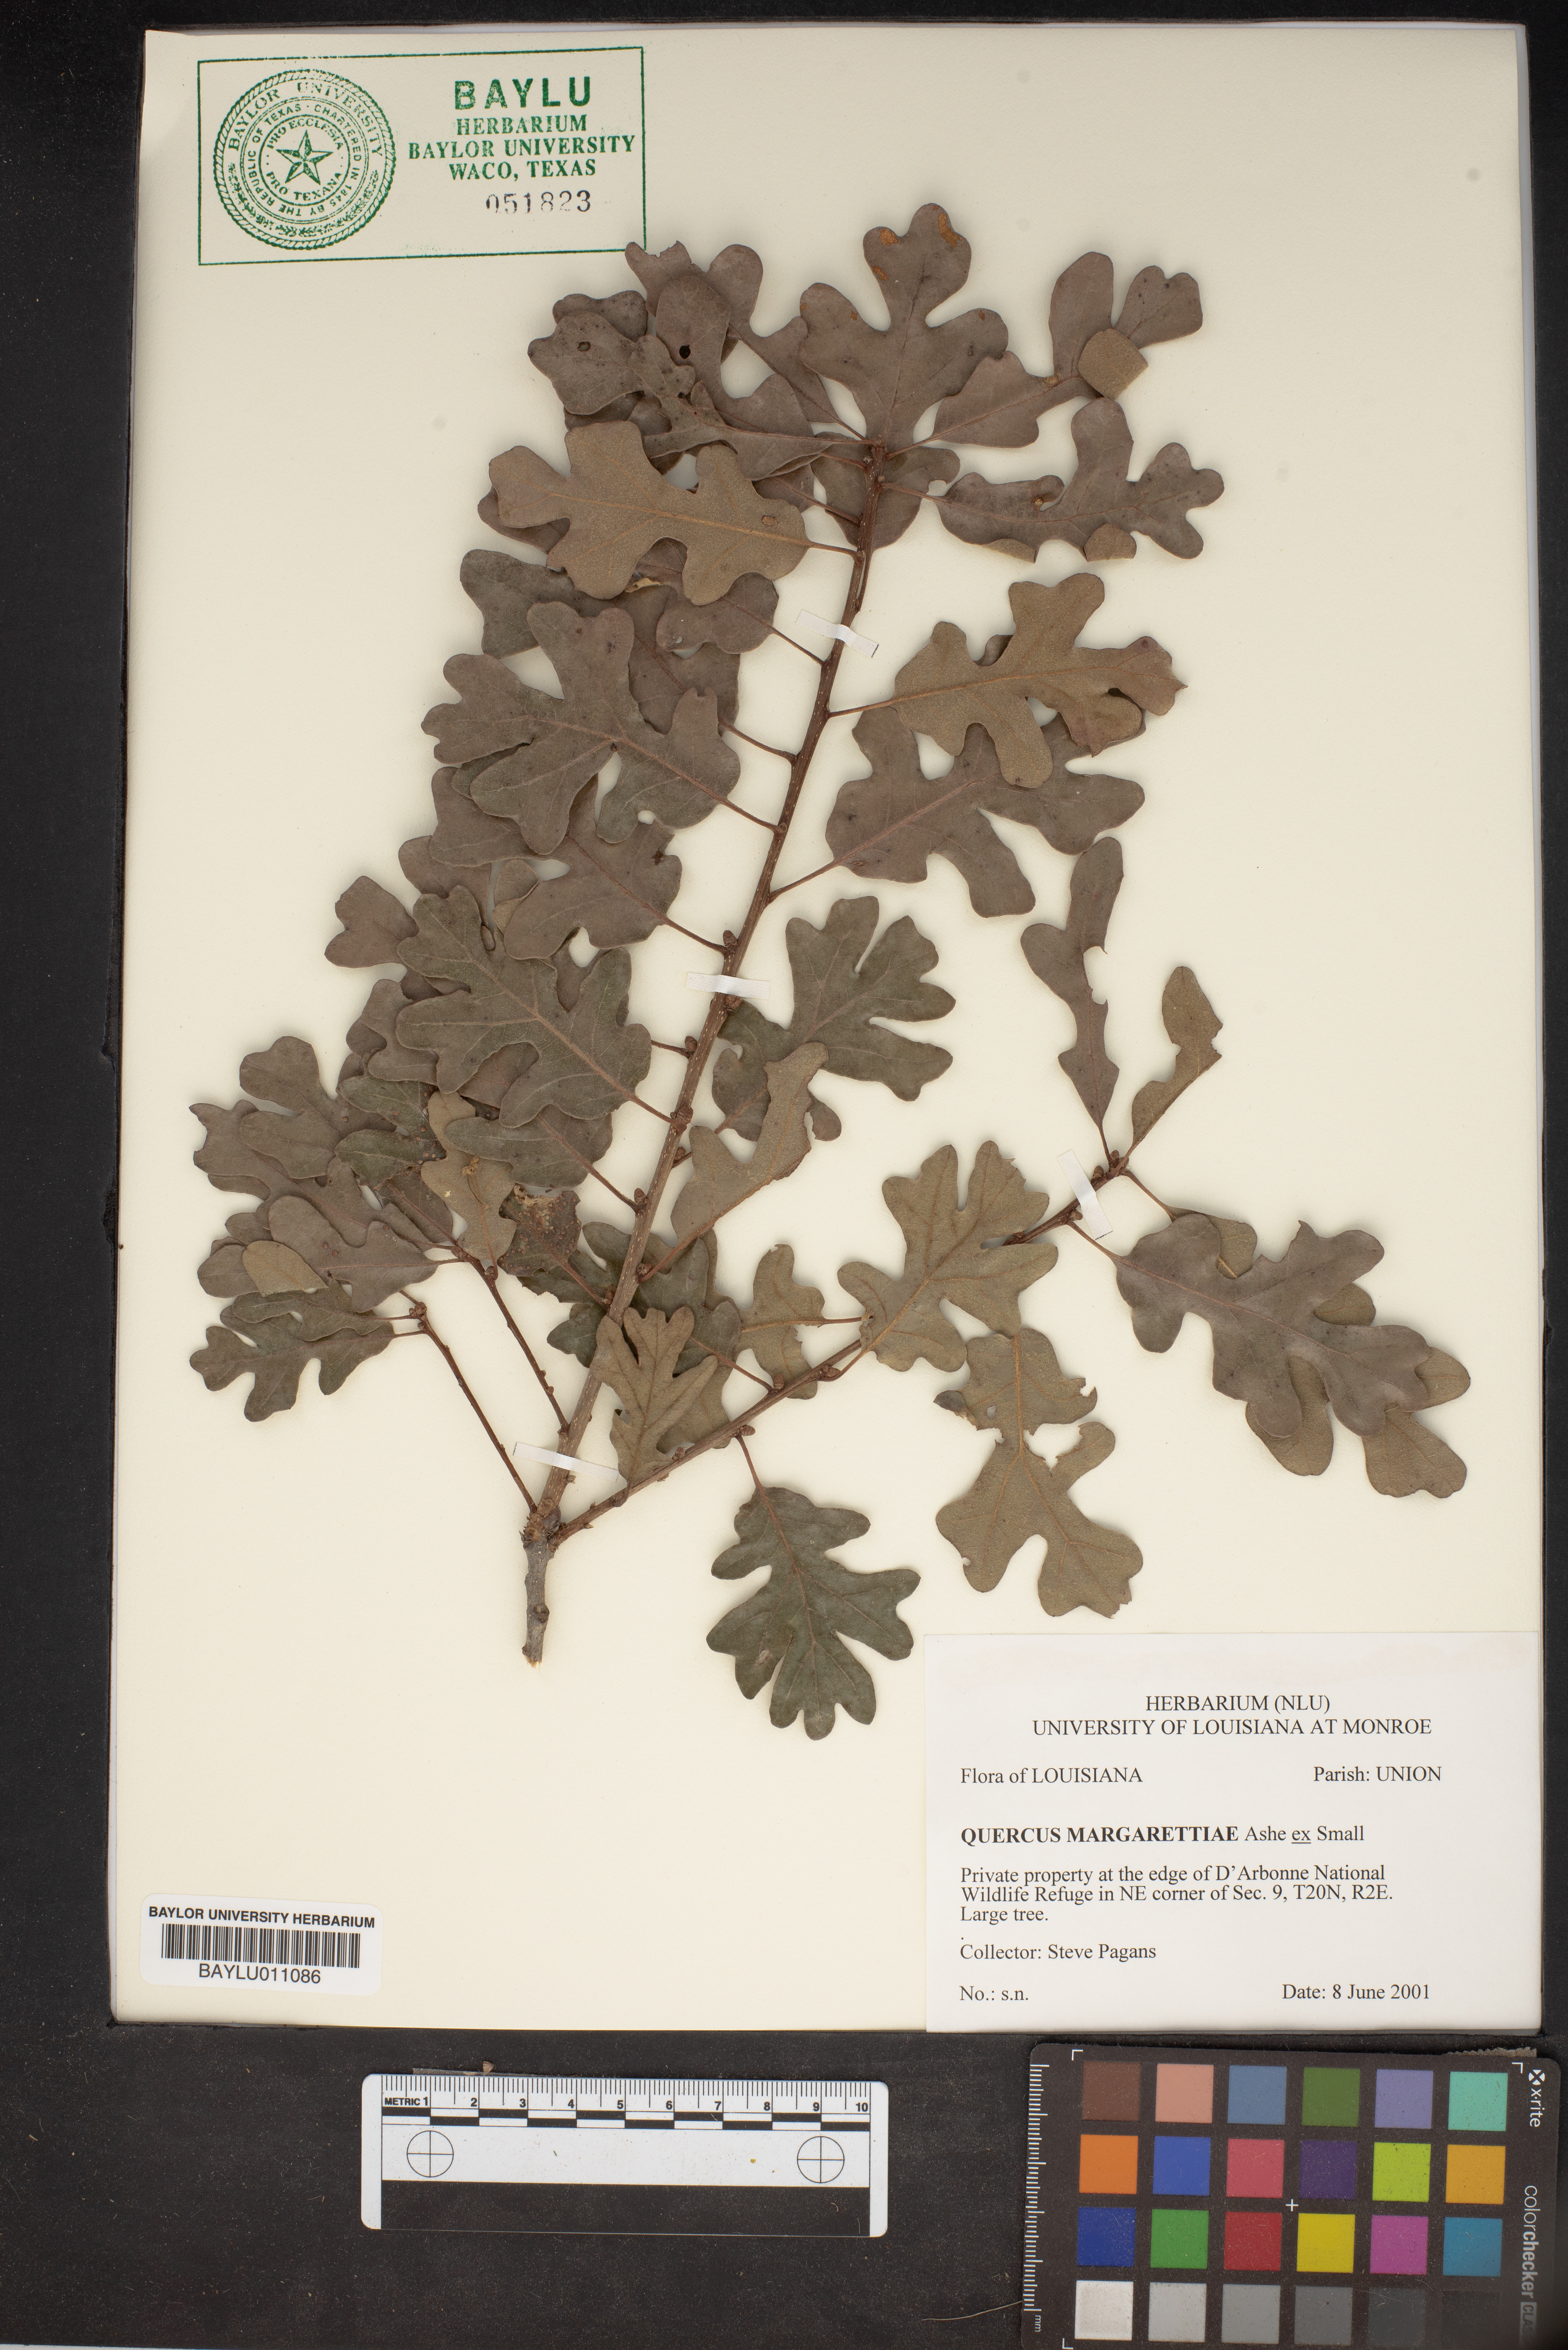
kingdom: Plantae
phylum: Tracheophyta
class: Magnoliopsida
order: Fagales
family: Fagaceae
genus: Quercus
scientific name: Quercus margaretiae
